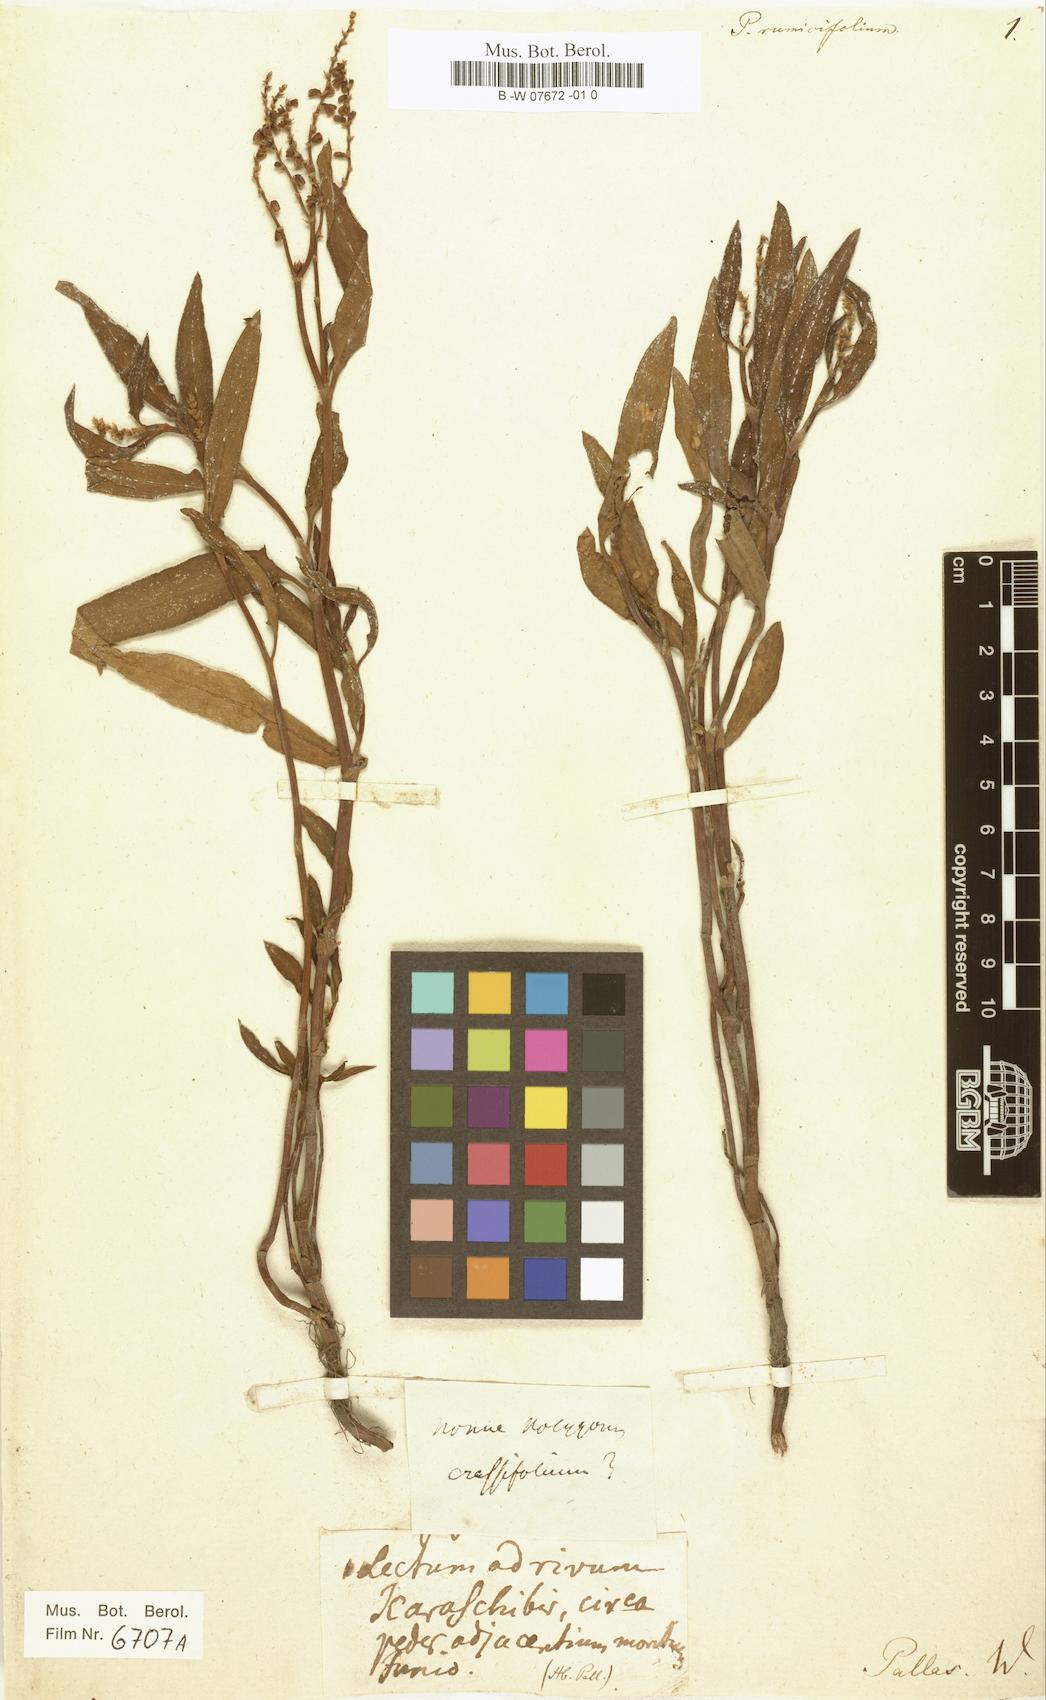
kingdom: Plantae
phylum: Tracheophyta
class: Magnoliopsida
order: Caryophyllales
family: Polygonaceae
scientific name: Polygonaceae
